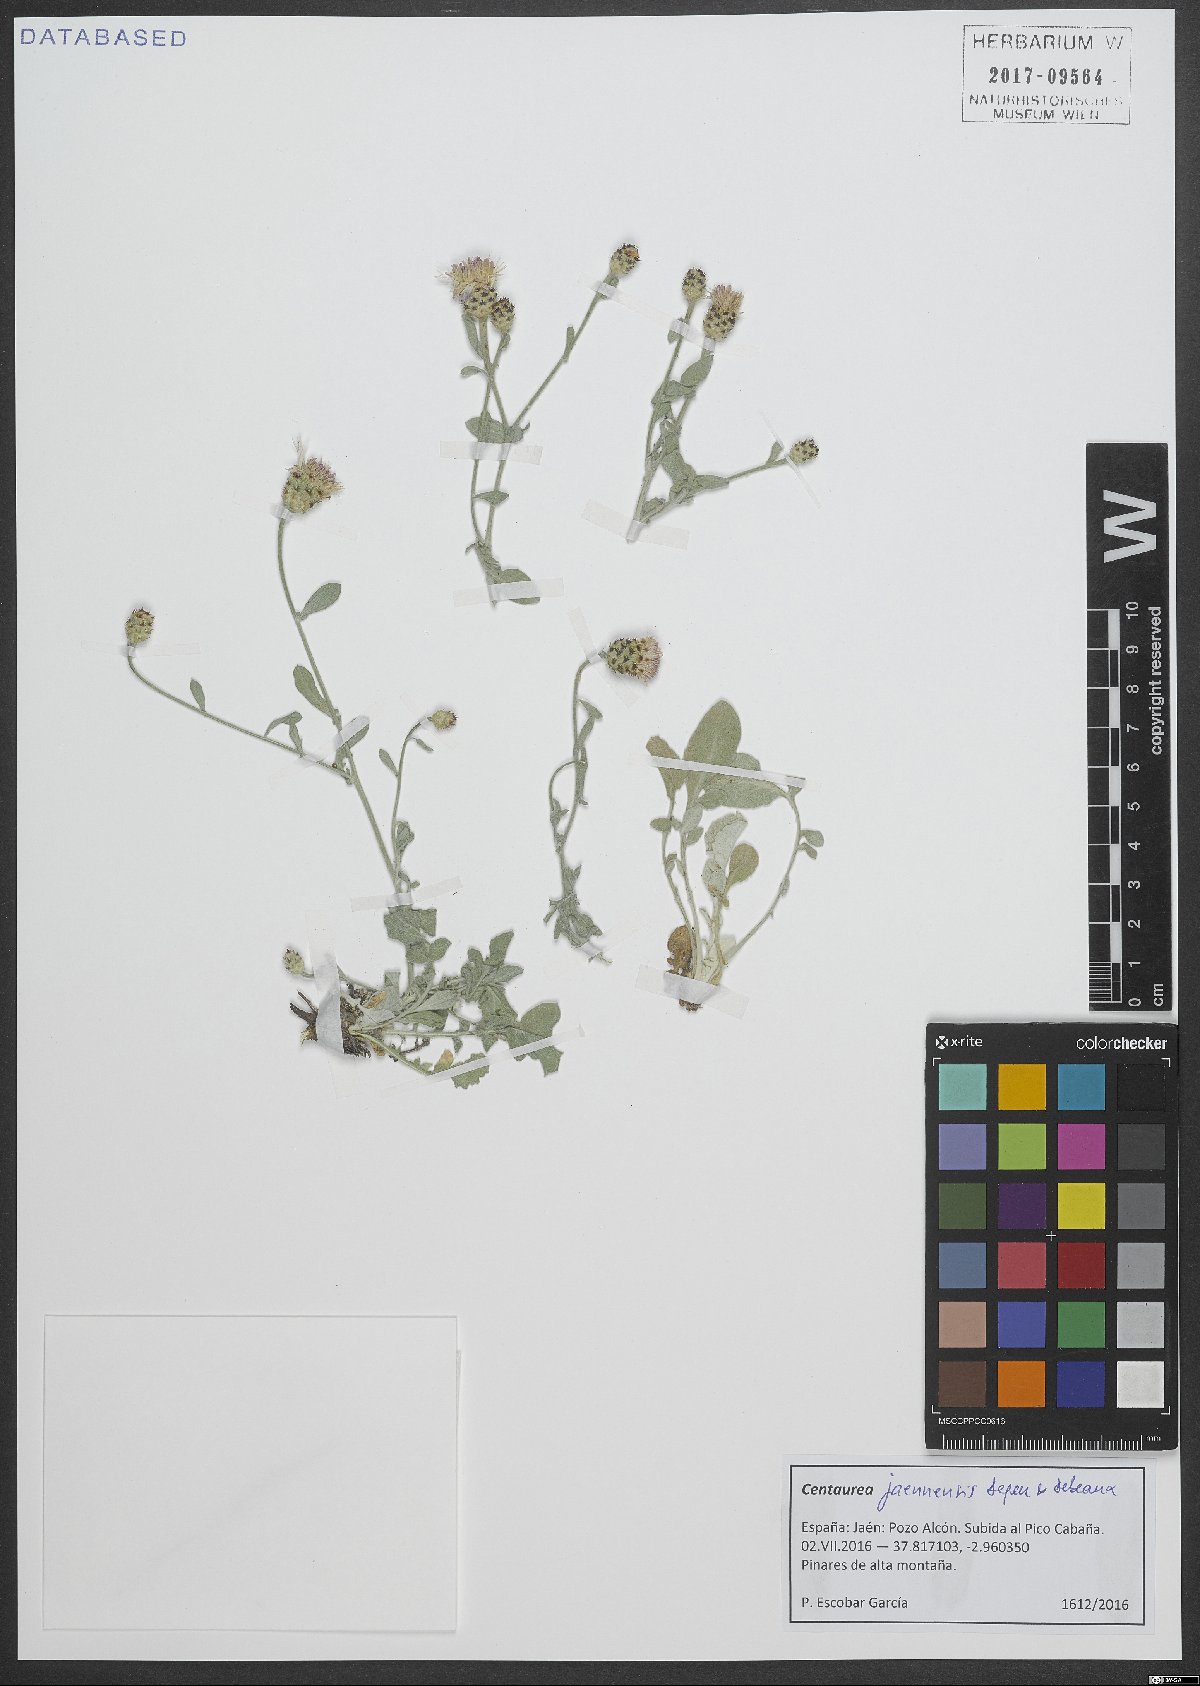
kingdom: Plantae
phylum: Tracheophyta
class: Magnoliopsida
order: Asterales
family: Asteraceae
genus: Centaurea
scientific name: Centaurea jaennensis
